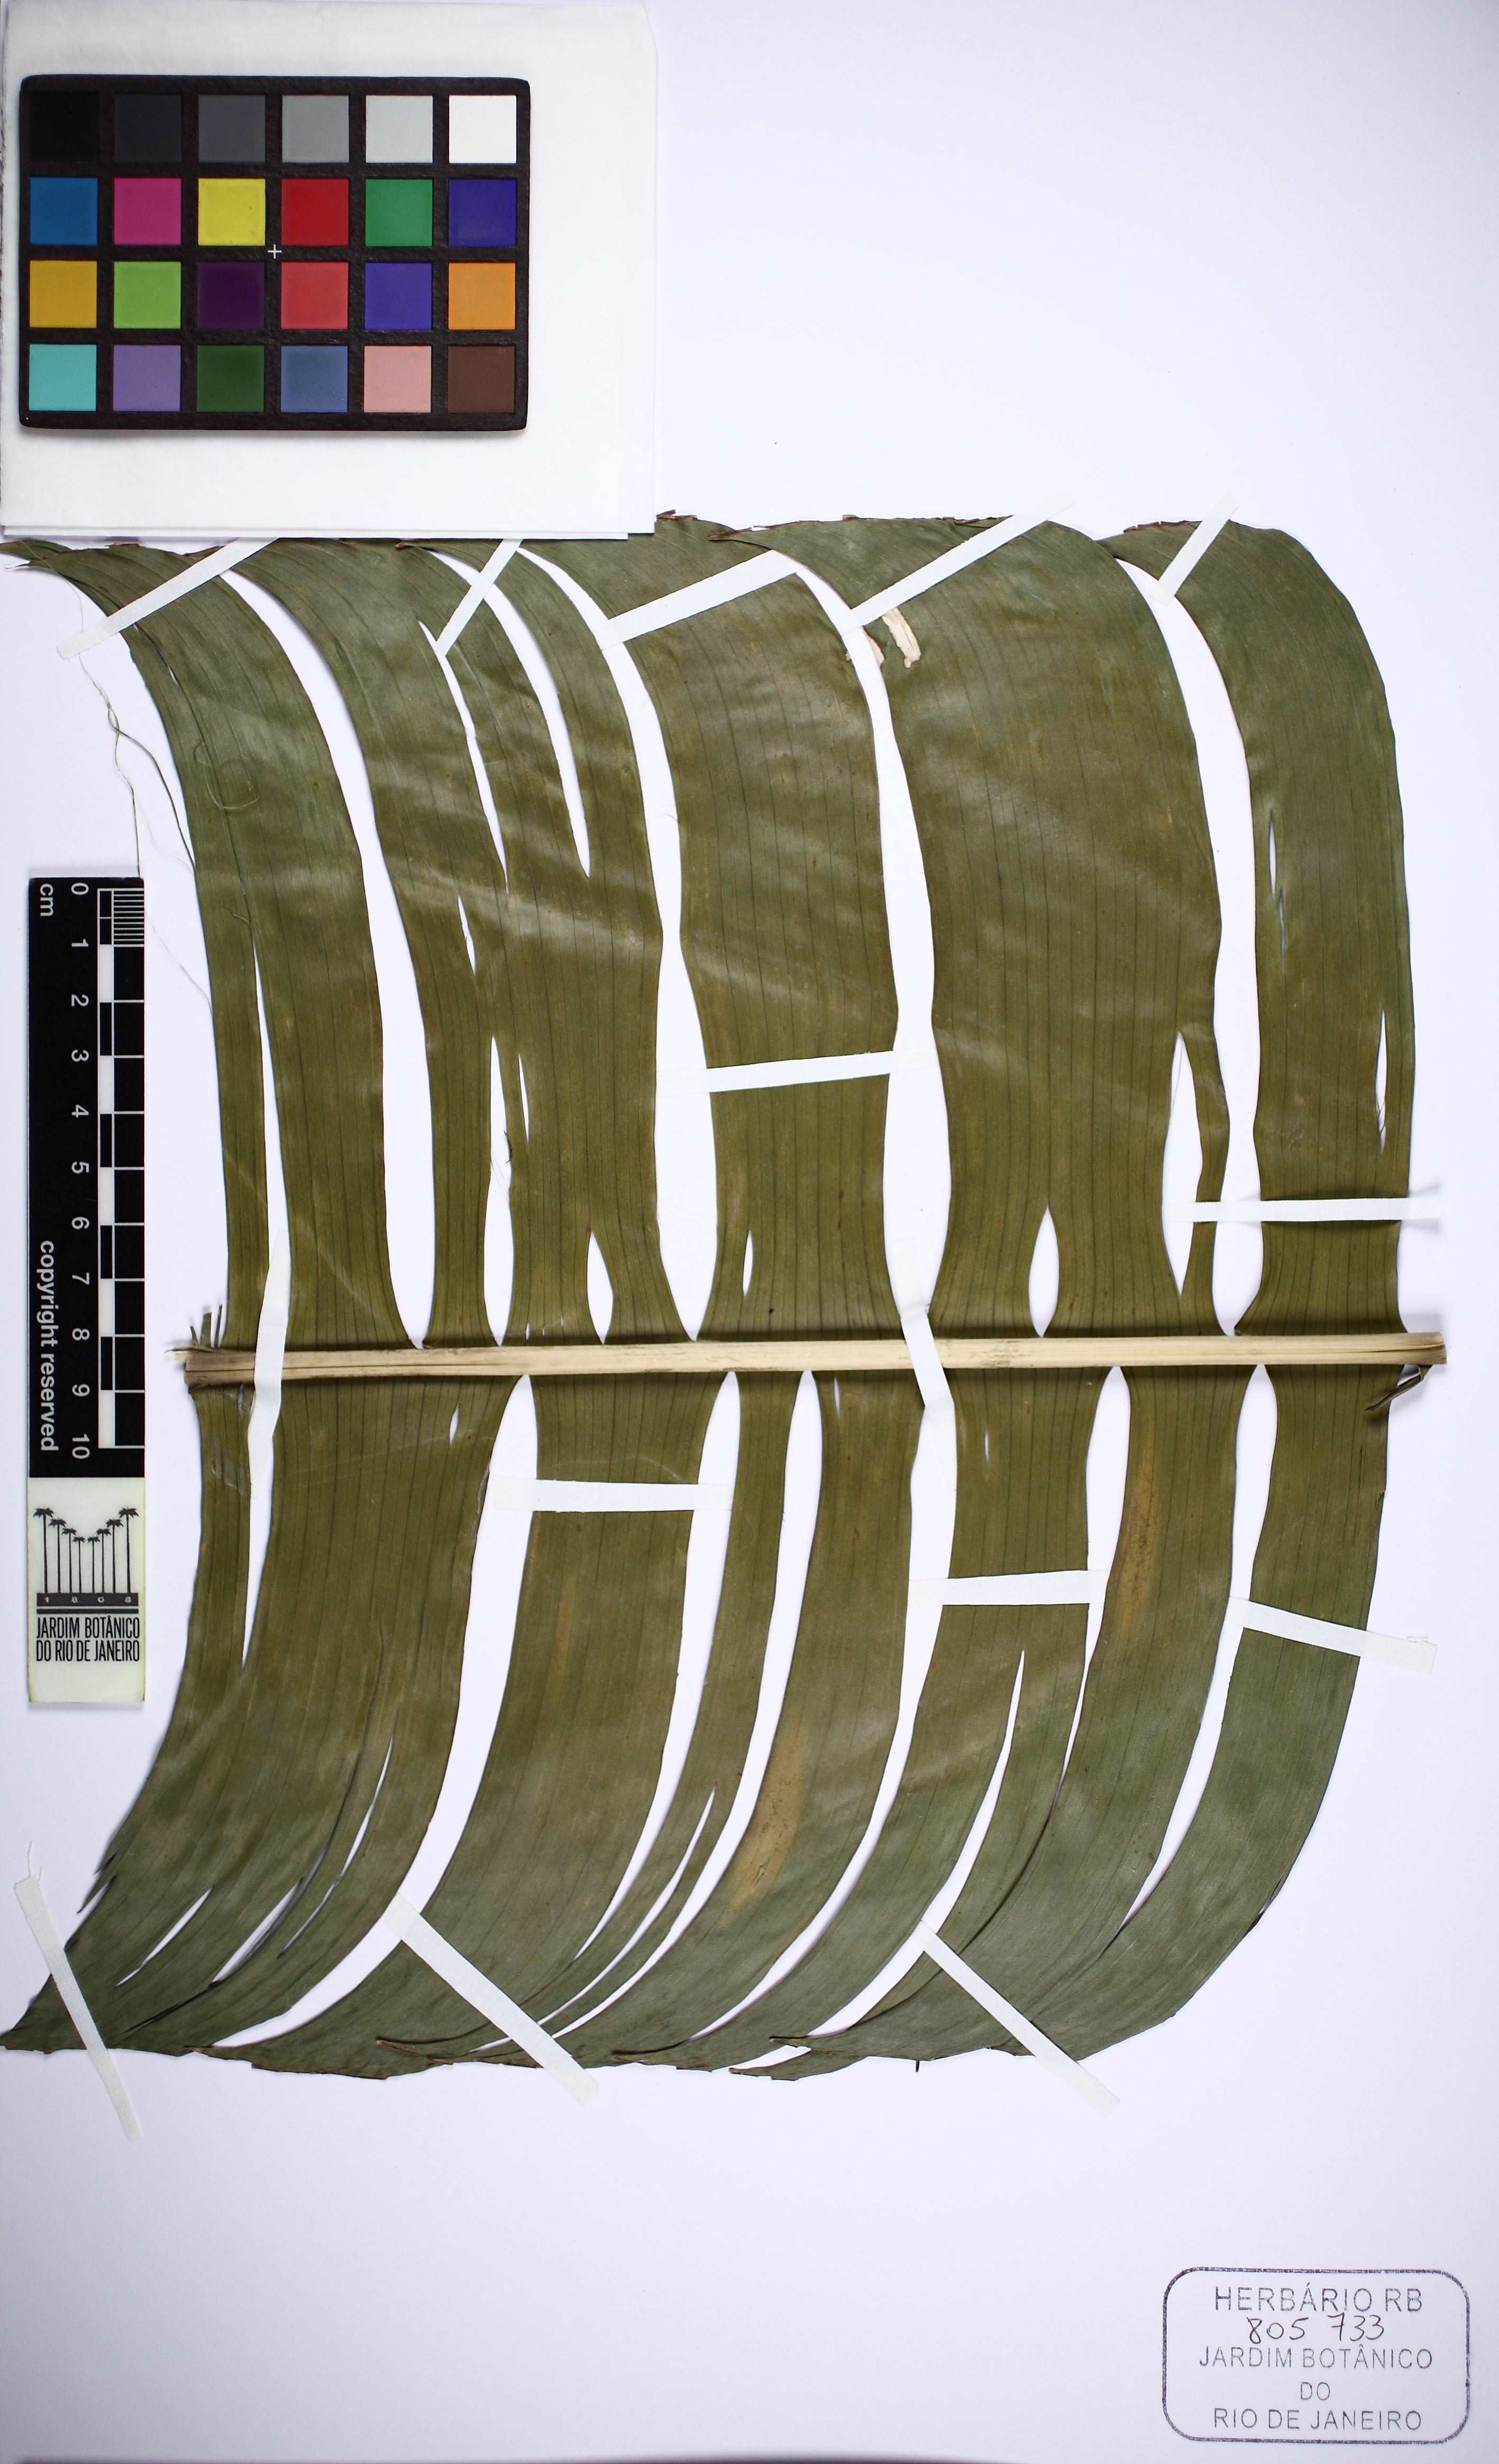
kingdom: Plantae
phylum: Tracheophyta
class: Liliopsida
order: Zingiberales
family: Heliconiaceae
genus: Heliconia
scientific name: Heliconia
